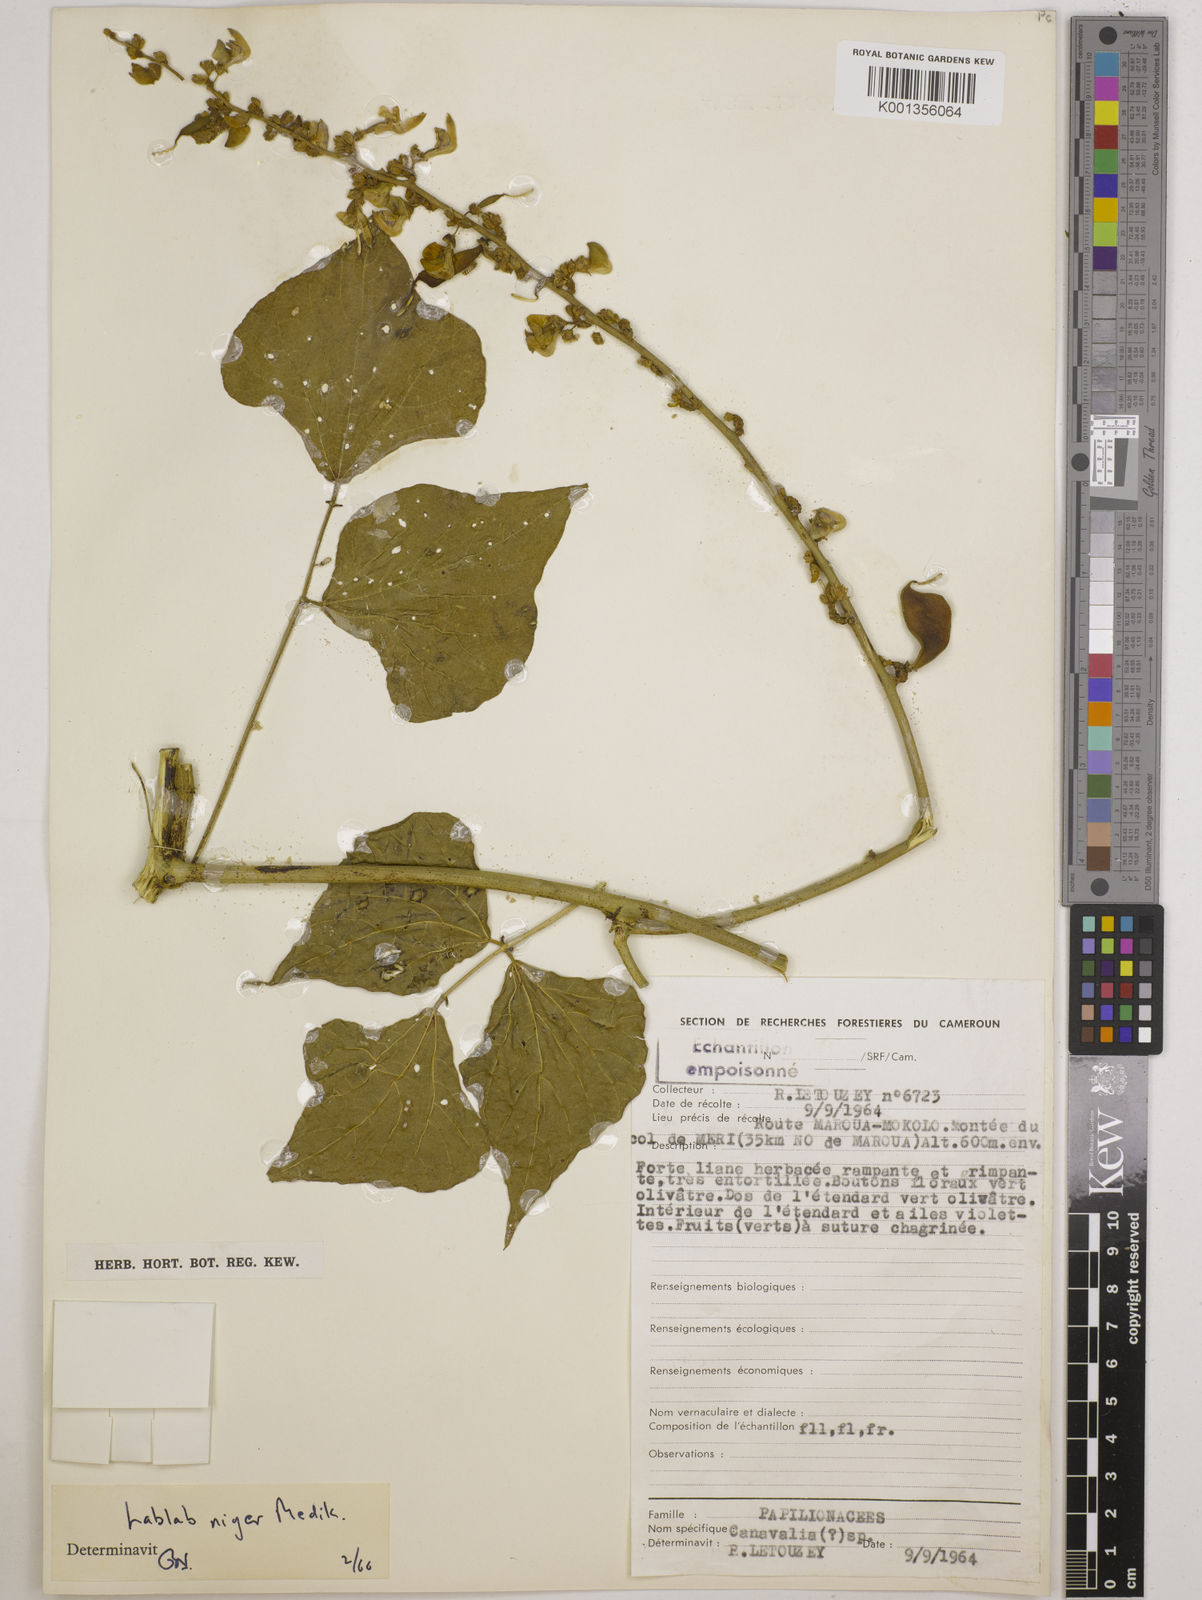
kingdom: Plantae
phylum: Tracheophyta
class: Magnoliopsida
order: Fabales
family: Fabaceae
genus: Lablab
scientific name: Lablab purpureus
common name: Lablab-bean
